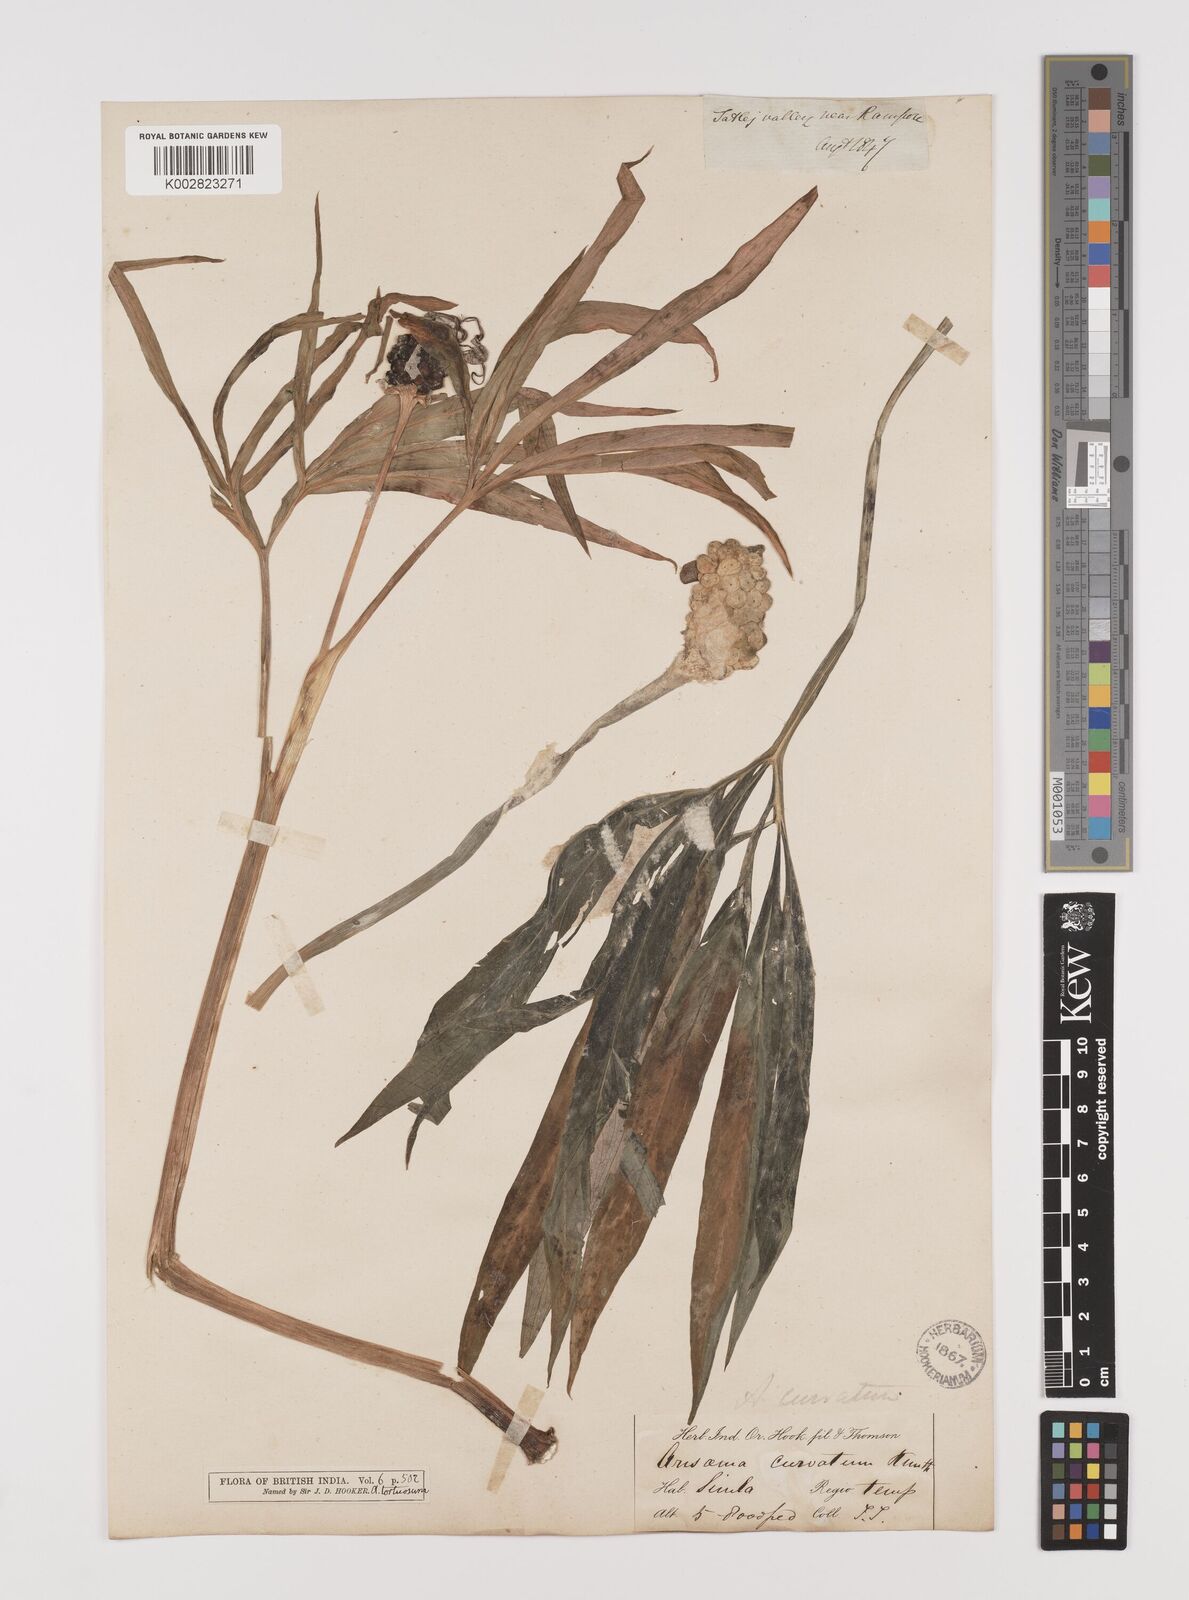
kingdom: Plantae
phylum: Tracheophyta
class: Liliopsida
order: Alismatales
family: Araceae
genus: Arisaema
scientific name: Arisaema tortuosum
